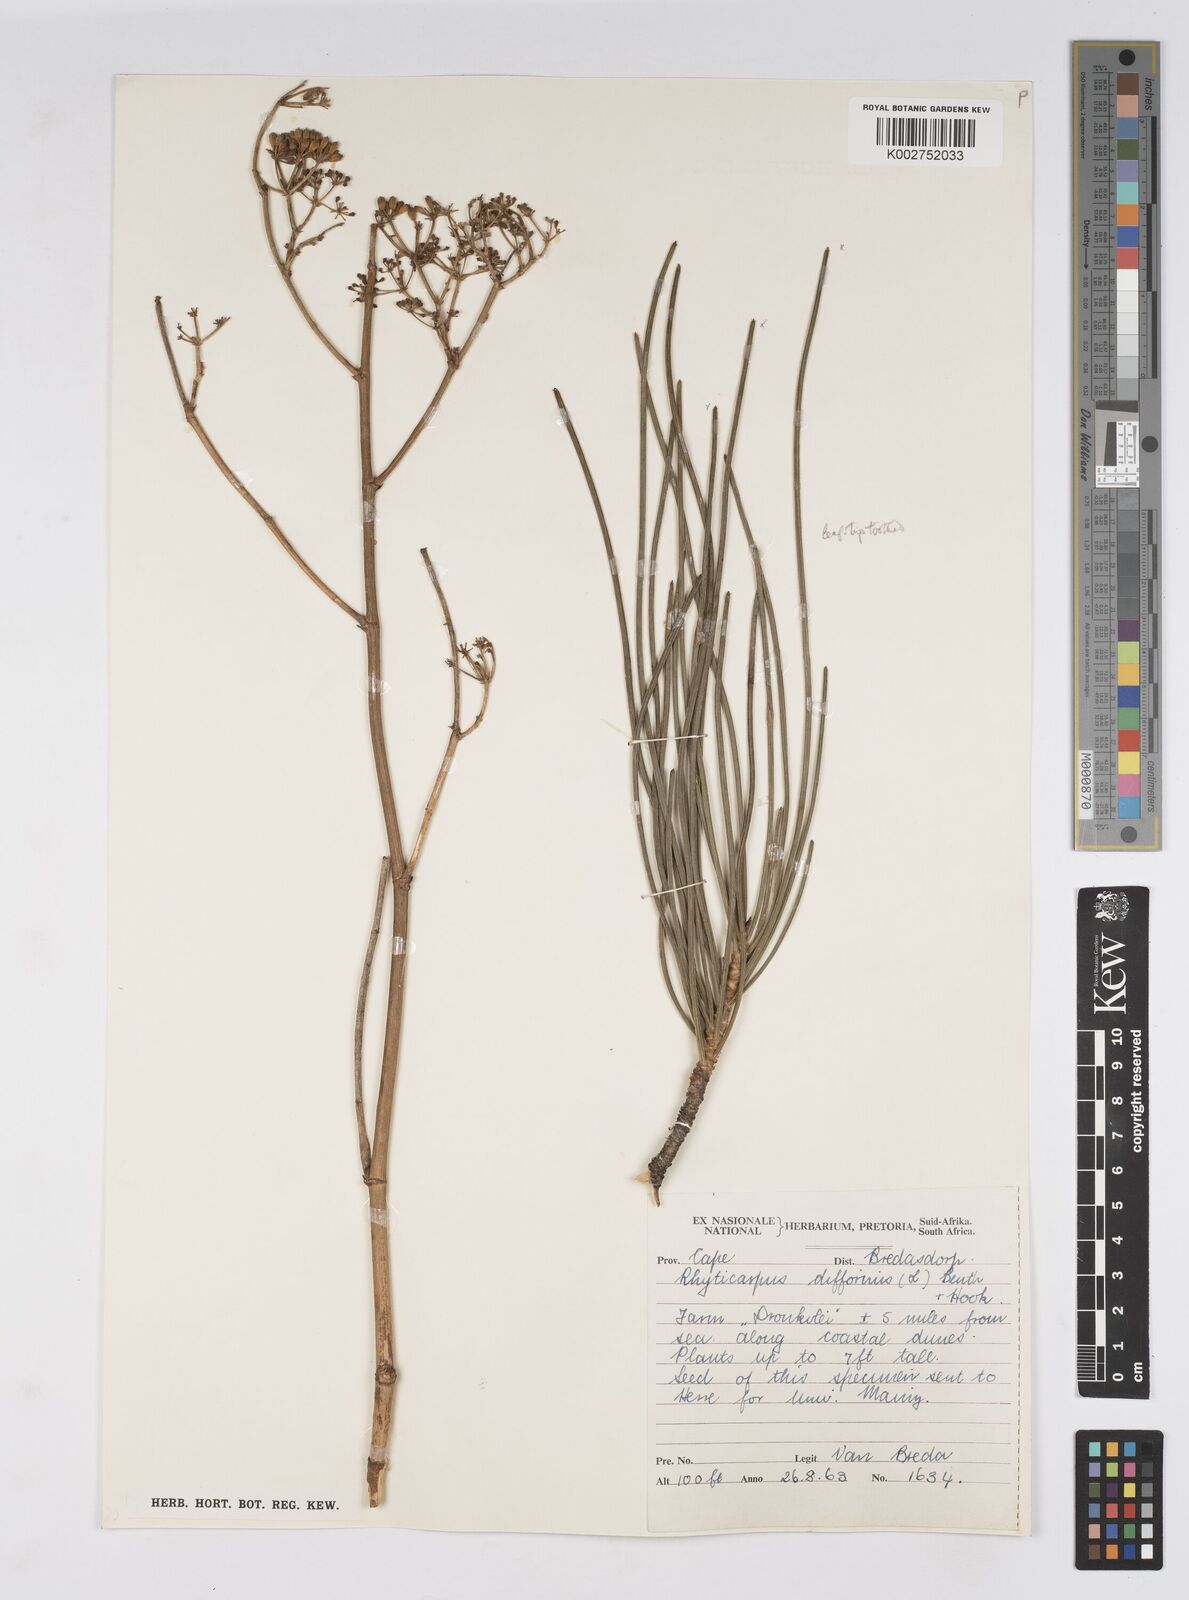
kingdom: Plantae
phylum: Tracheophyta
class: Magnoliopsida
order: Apiales
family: Apiaceae
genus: Anginon
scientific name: Anginon difforme
